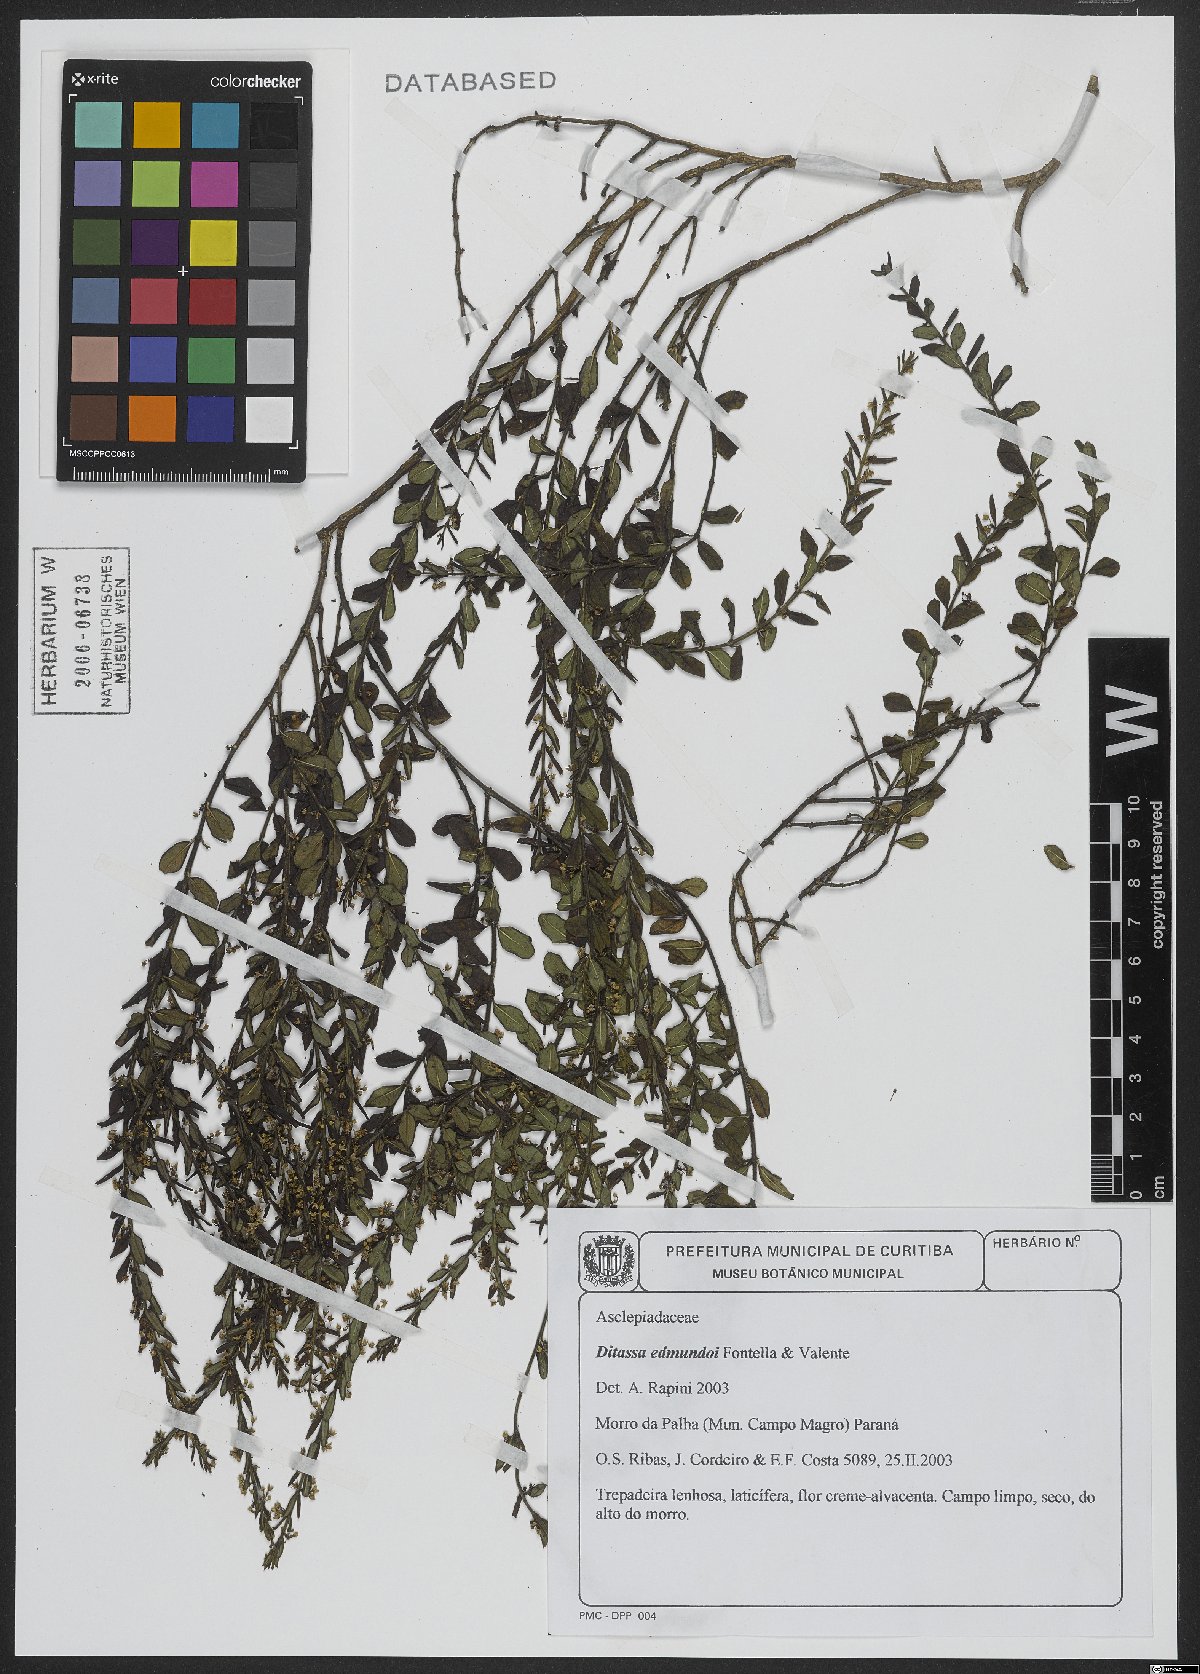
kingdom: Plantae
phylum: Tracheophyta
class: Magnoliopsida
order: Gentianales
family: Apocynaceae
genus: Ditassa
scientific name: Ditassa edmundoi
